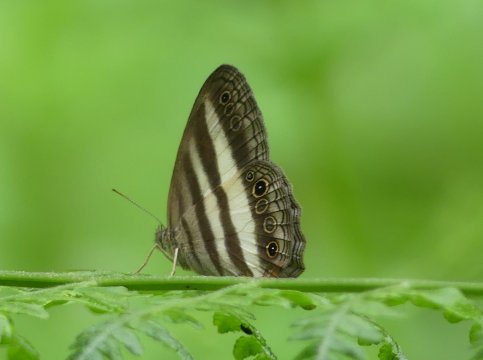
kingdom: Animalia
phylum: Arthropoda
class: Insecta
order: Lepidoptera
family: Nymphalidae
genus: Pareuptychia
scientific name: Pareuptychia hesione
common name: White Satyr
